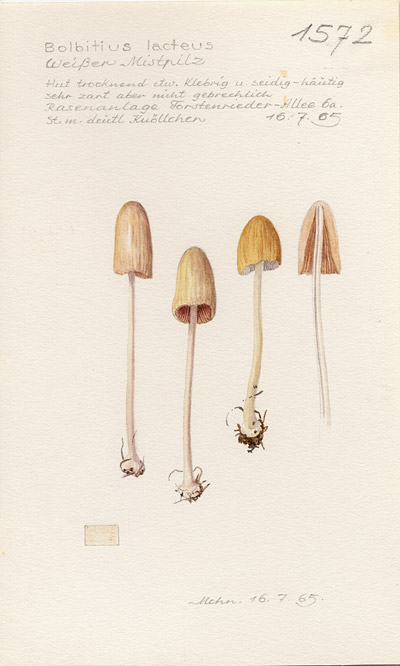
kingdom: Fungi
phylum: Basidiomycota
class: Agaricomycetes
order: Agaricales
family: Bolbitiaceae
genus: Bolbitius
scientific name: Bolbitius lacteus
